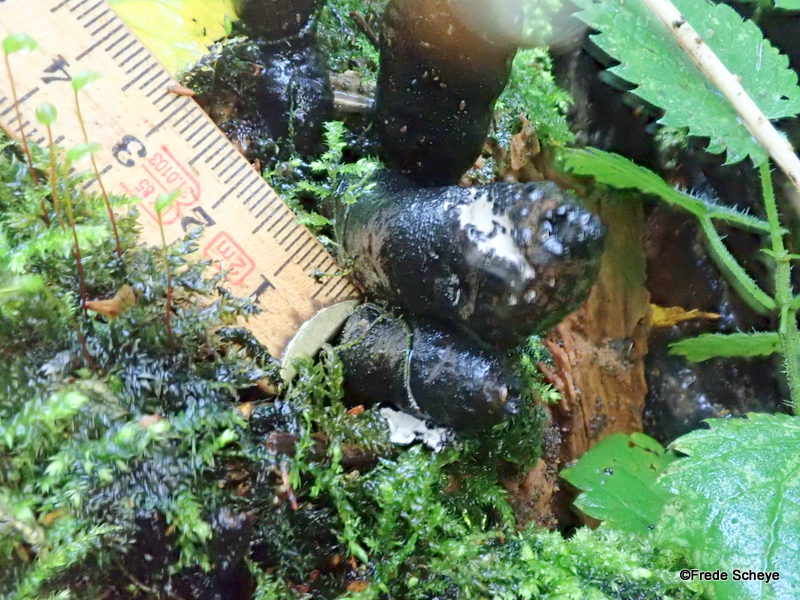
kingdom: Fungi
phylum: Ascomycota
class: Sordariomycetes
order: Xylariales
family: Xylariaceae
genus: Xylaria
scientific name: Xylaria polymorpha
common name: kølle-stødsvamp
